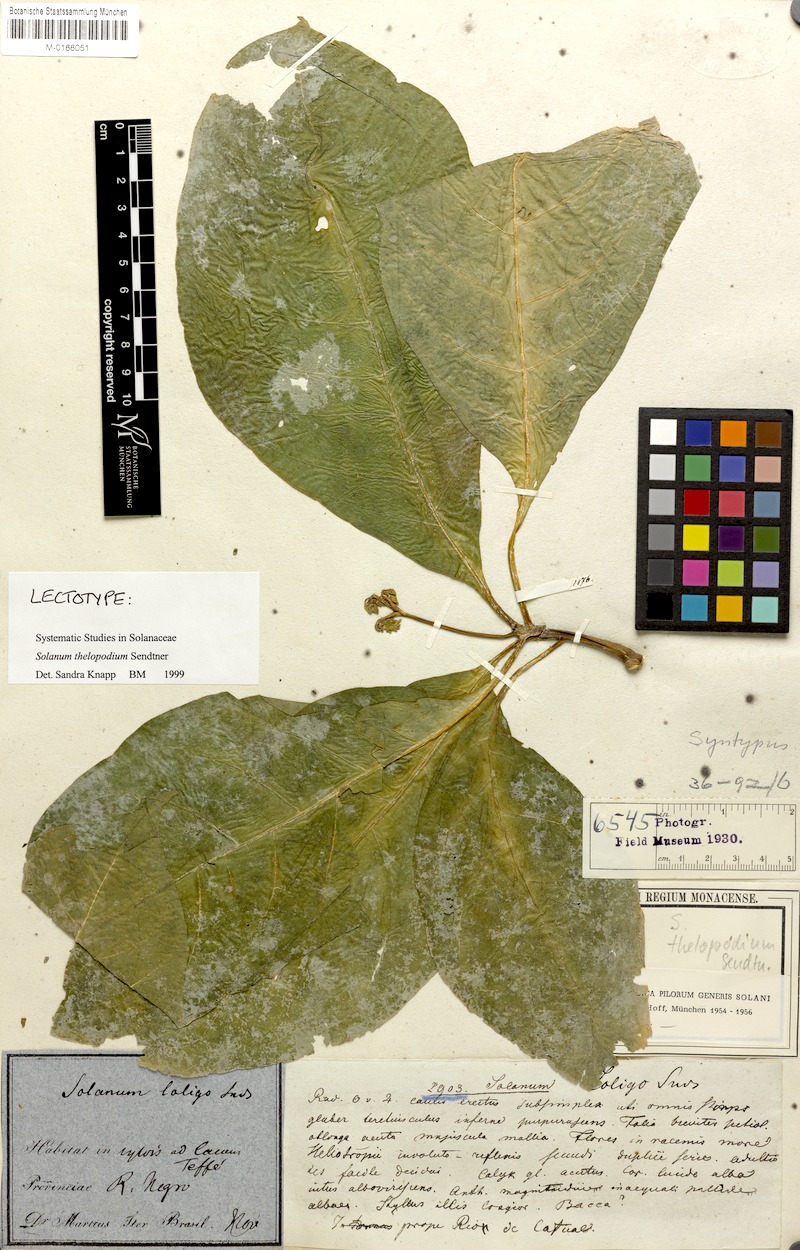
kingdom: Plantae
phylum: Tracheophyta
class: Magnoliopsida
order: Solanales
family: Solanaceae
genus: Solanum
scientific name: Solanum thelopodium
